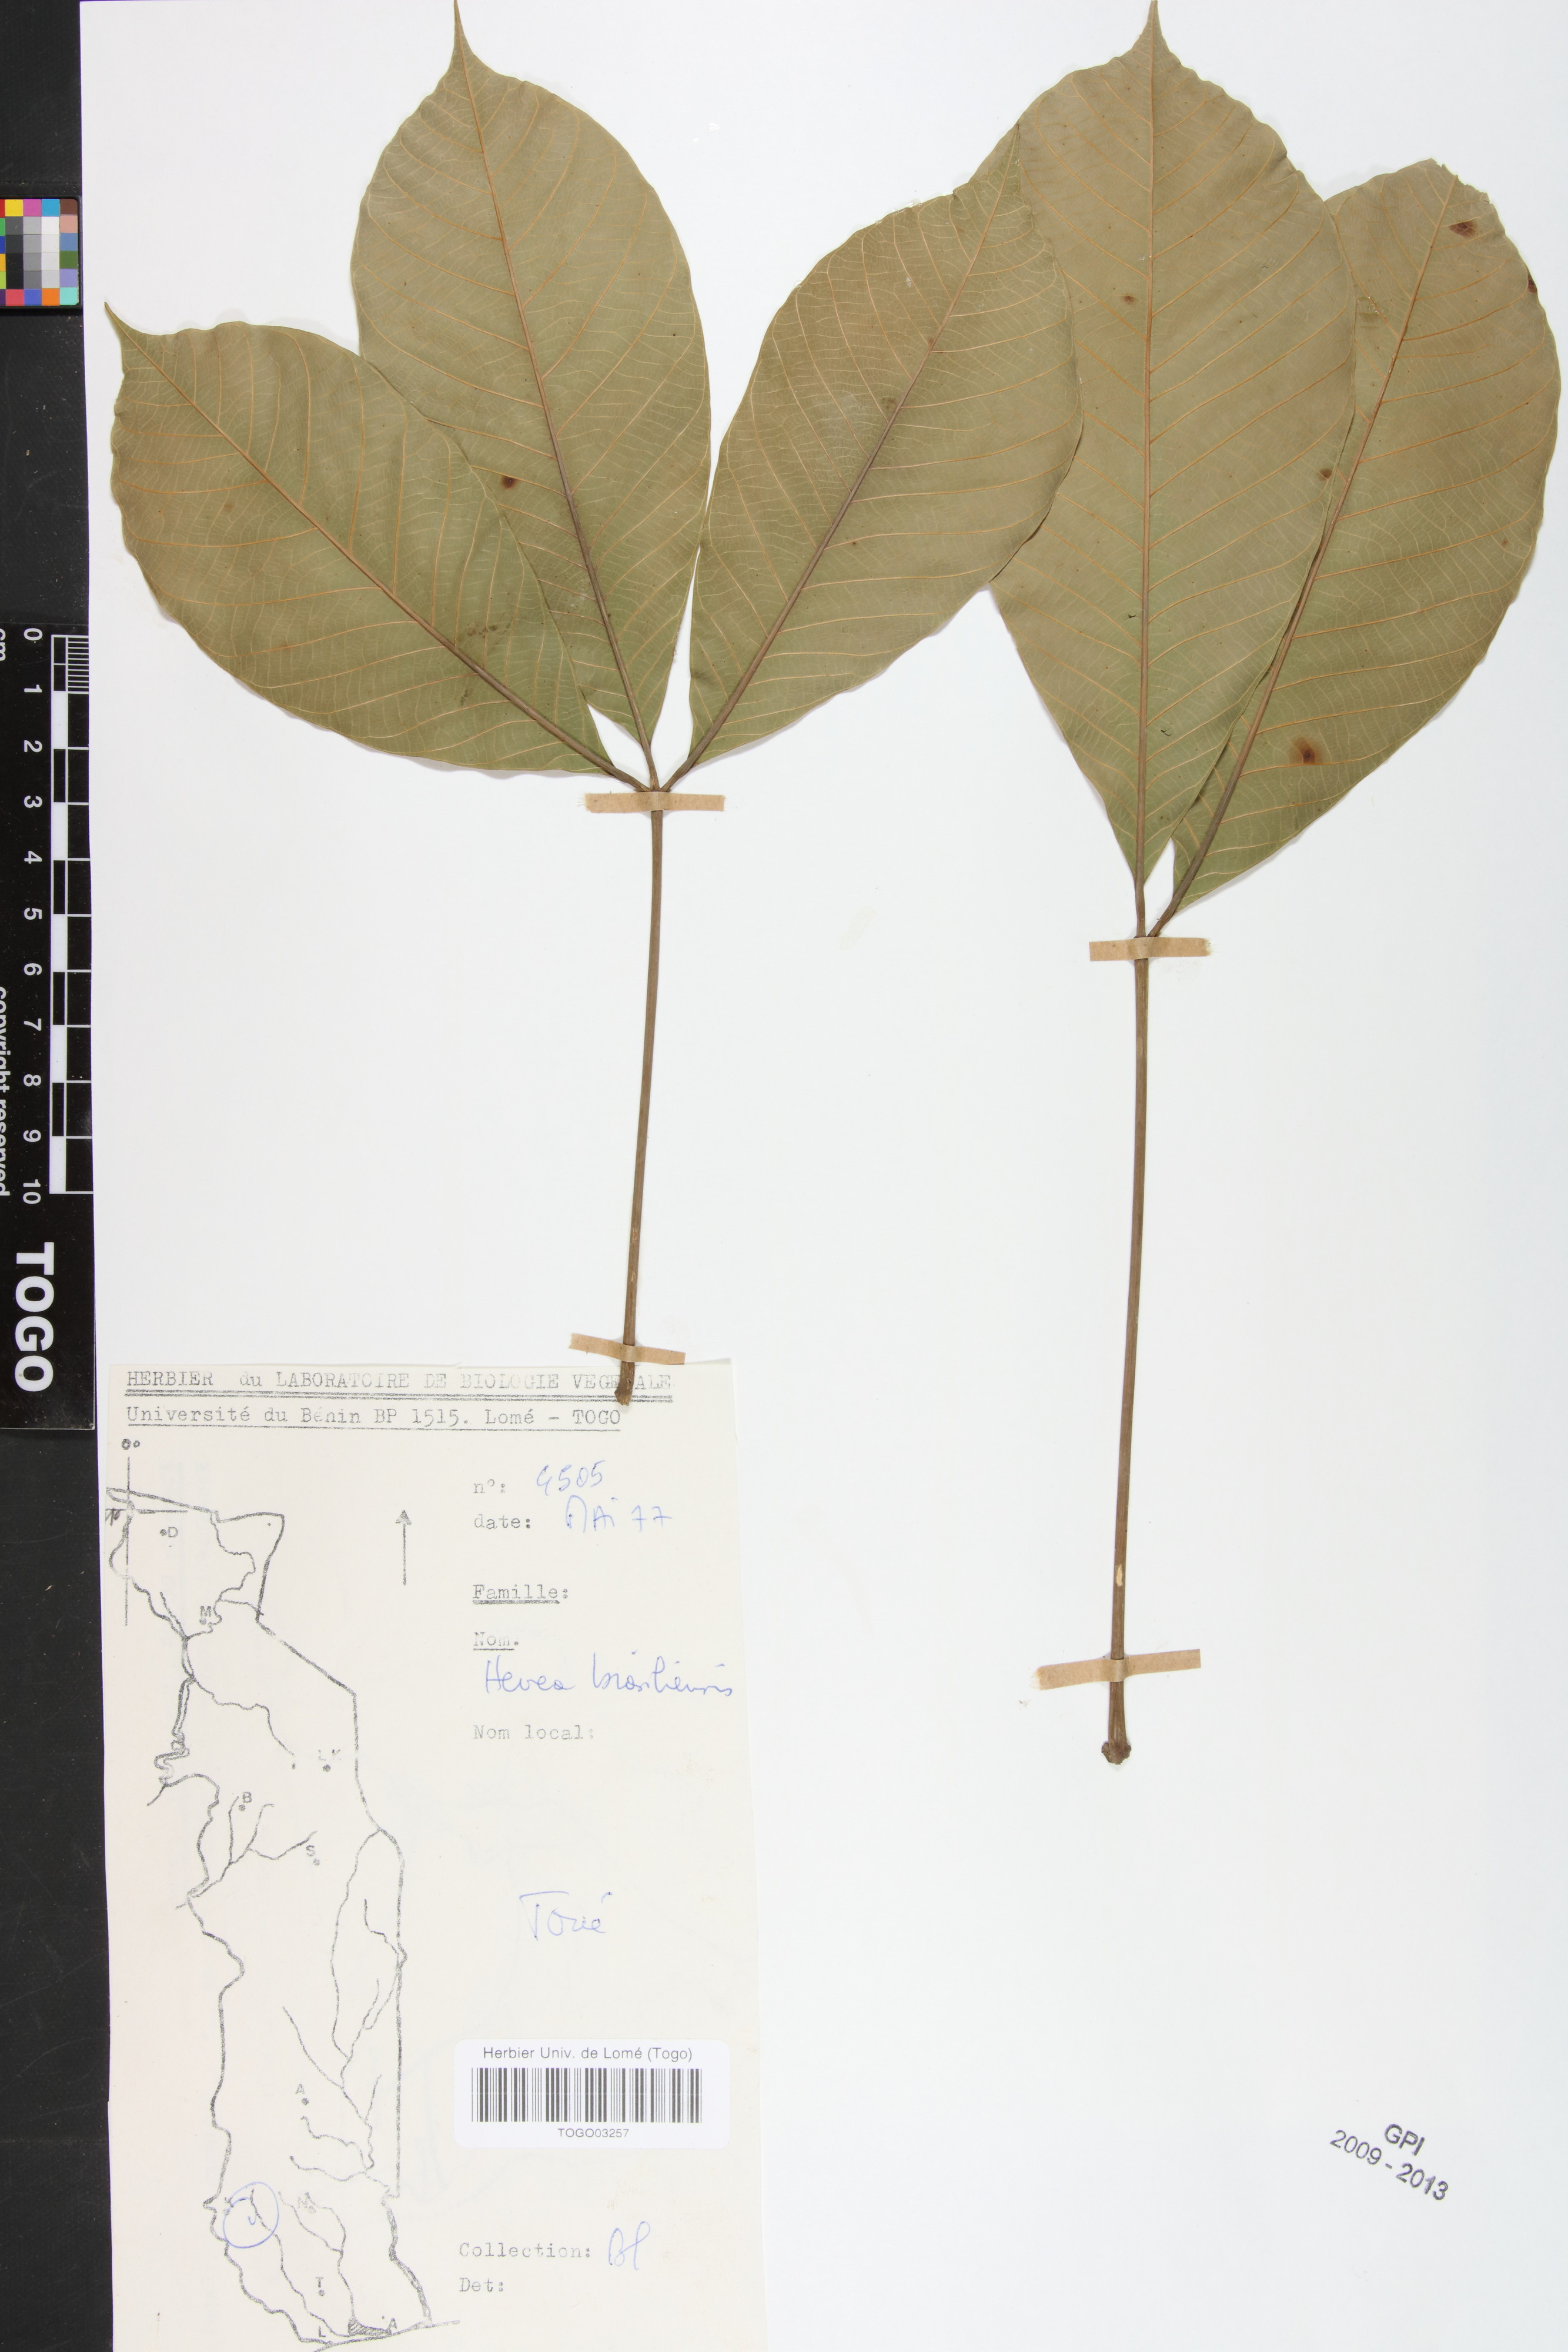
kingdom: Plantae
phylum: Tracheophyta
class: Magnoliopsida
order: Malpighiales
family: Euphorbiaceae
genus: Hevea
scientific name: Hevea brasiliensis
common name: Natural rubber
